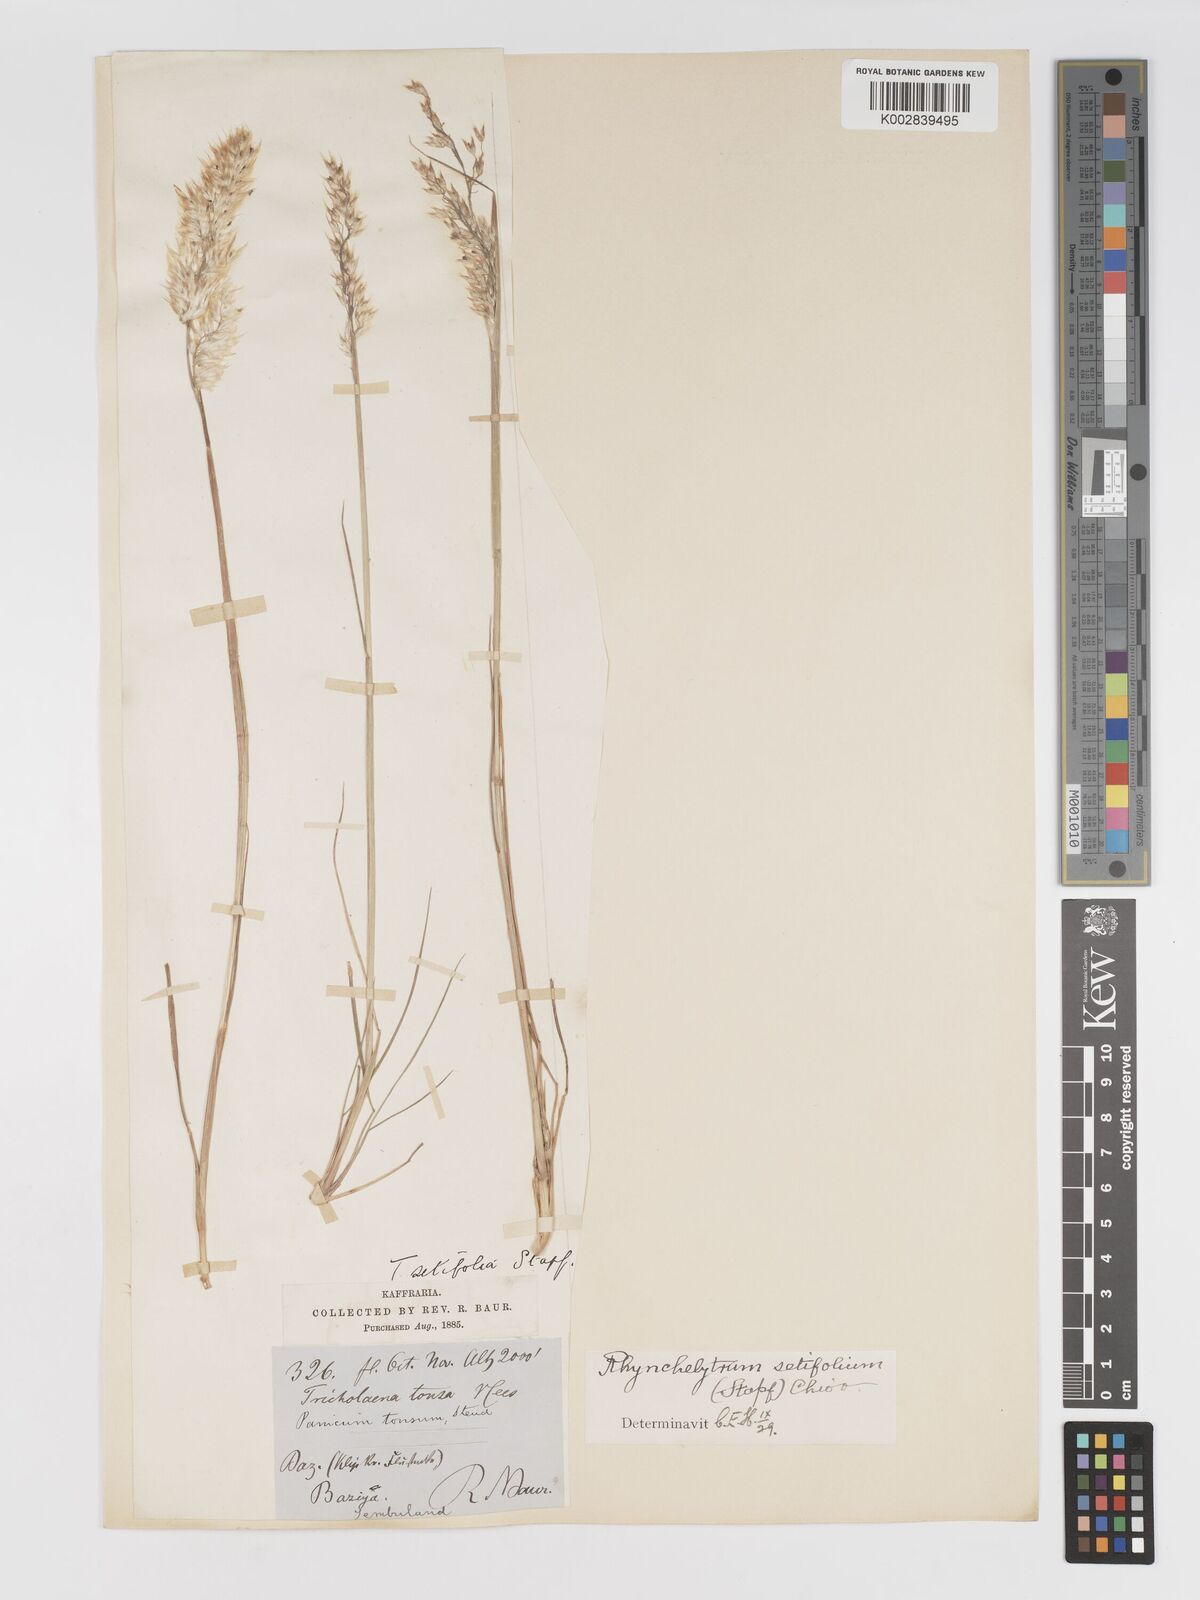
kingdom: Plantae
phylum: Tracheophyta
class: Liliopsida
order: Poales
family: Poaceae
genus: Melinis
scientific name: Melinis nerviglumis
